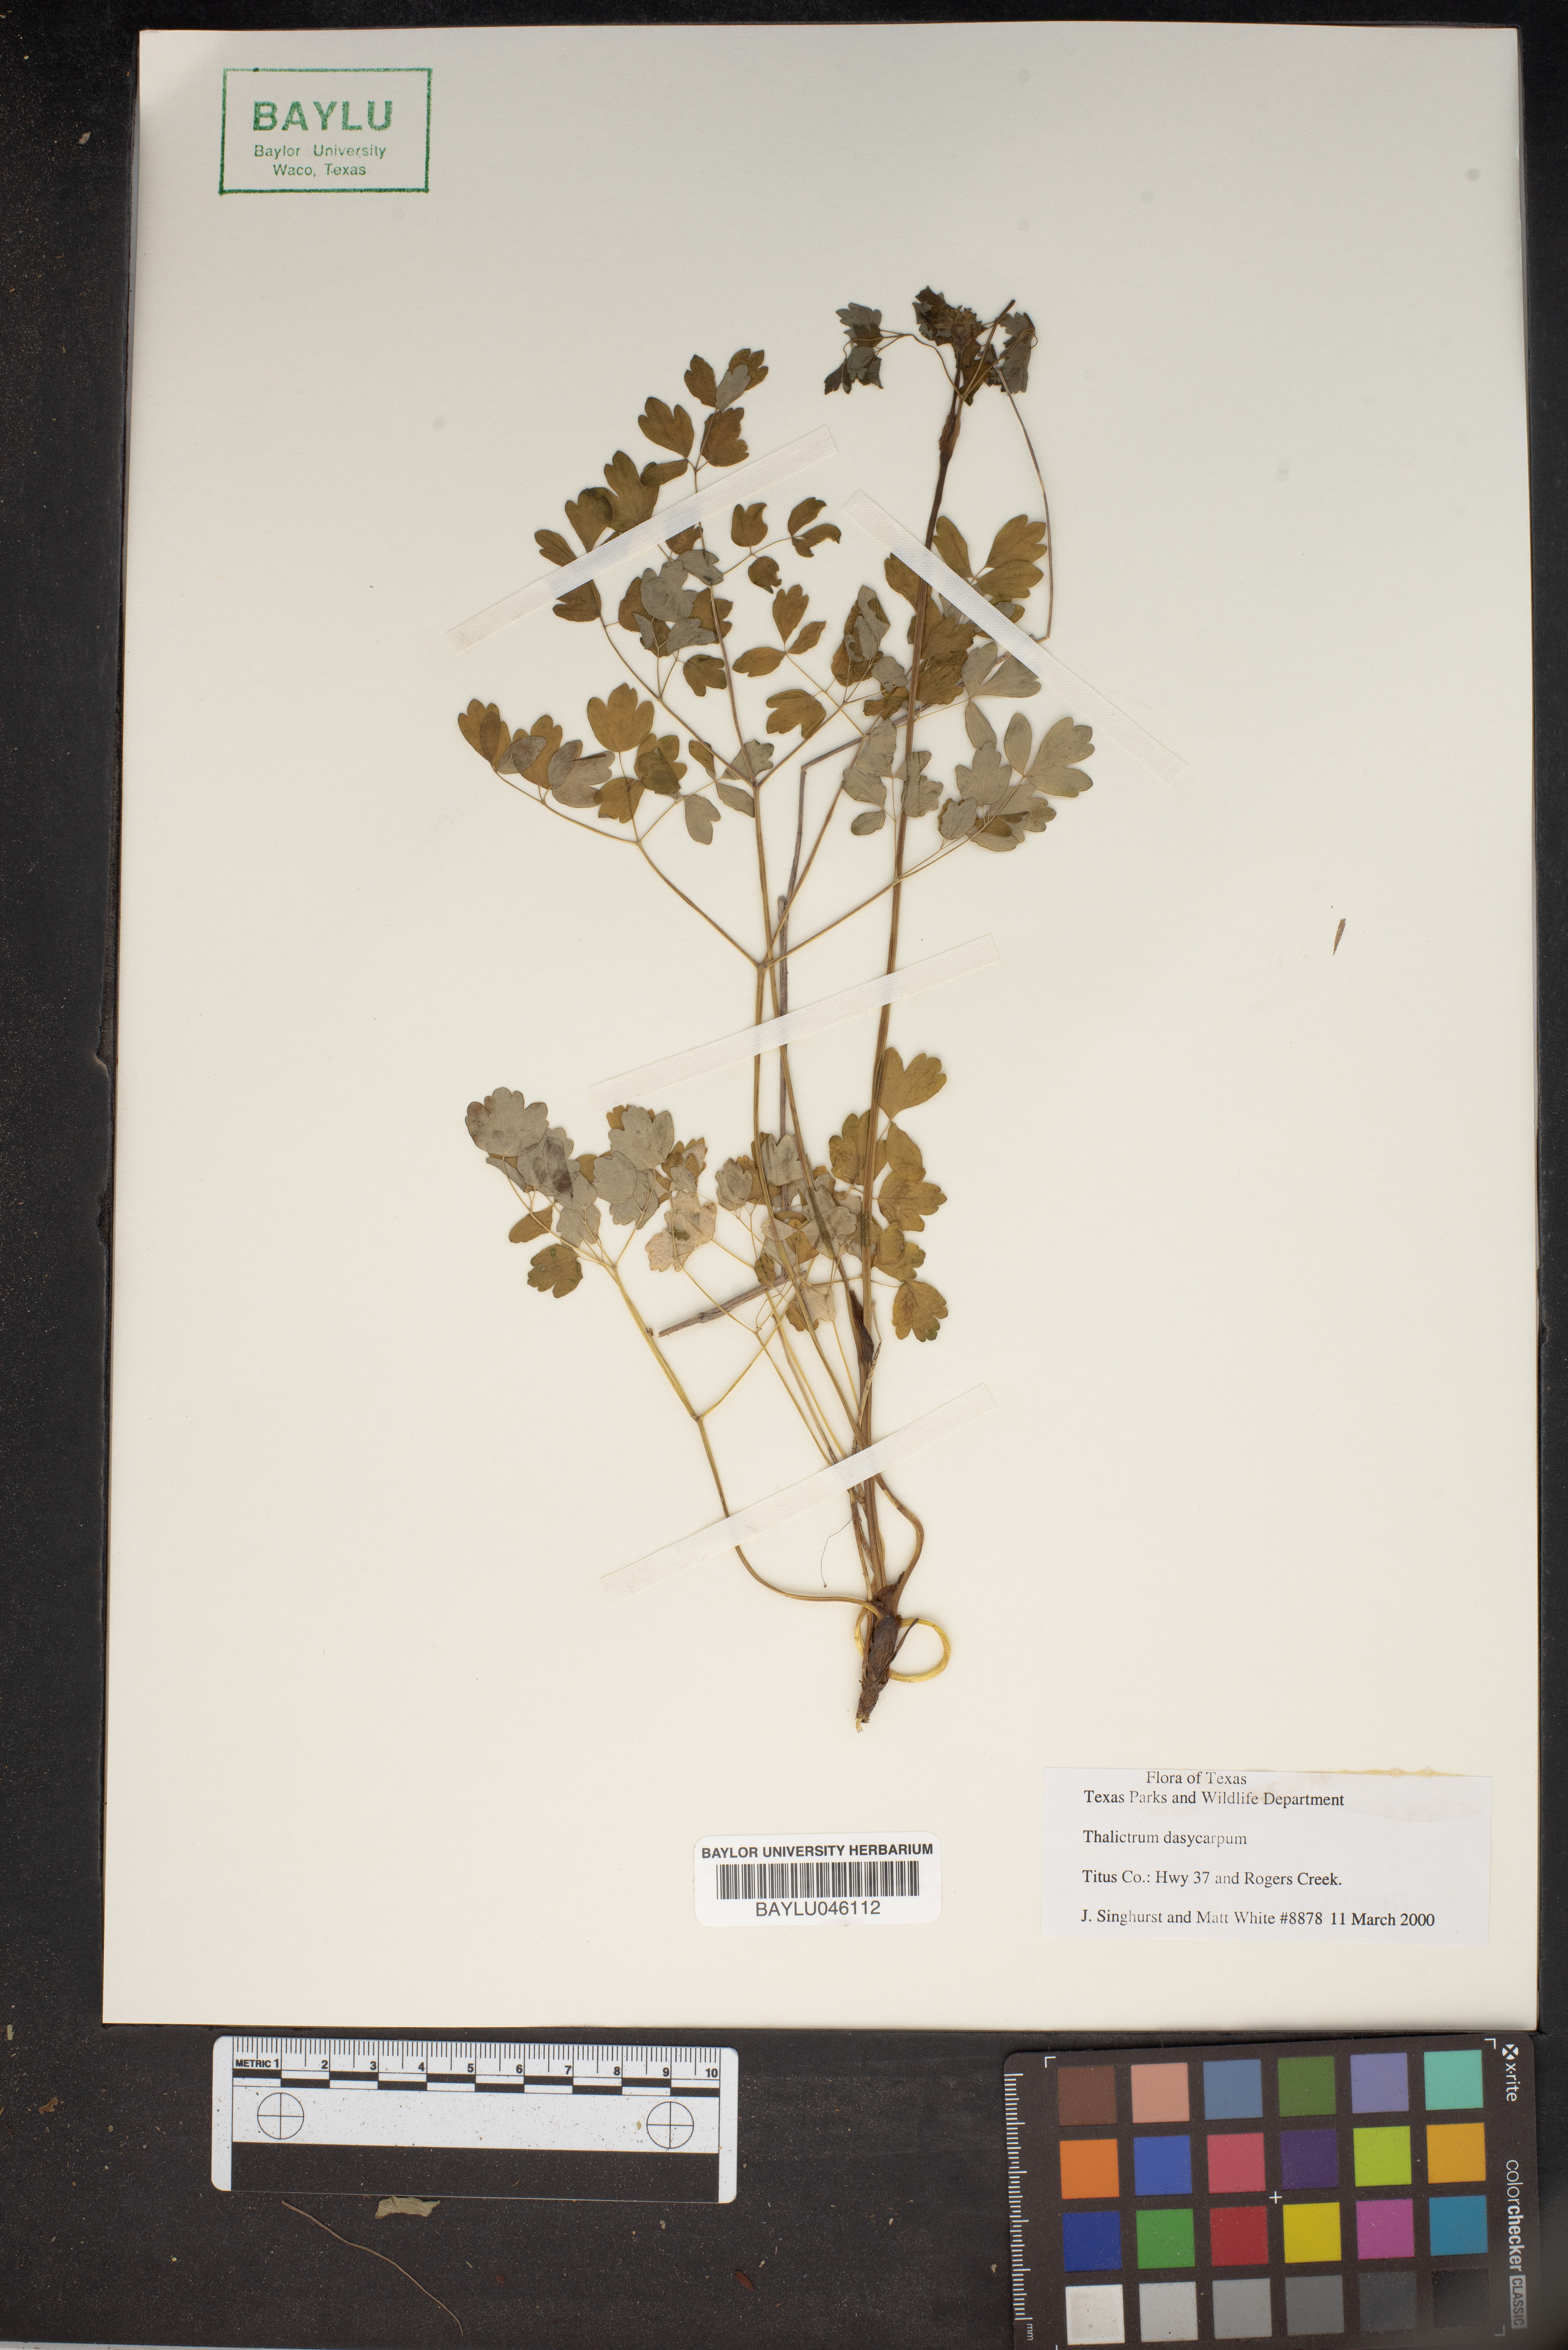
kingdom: Plantae
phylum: Tracheophyta
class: Magnoliopsida
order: Ranunculales
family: Ranunculaceae
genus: Thalictrum
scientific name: Thalictrum dasycarpum
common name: Purple meadow-rue
